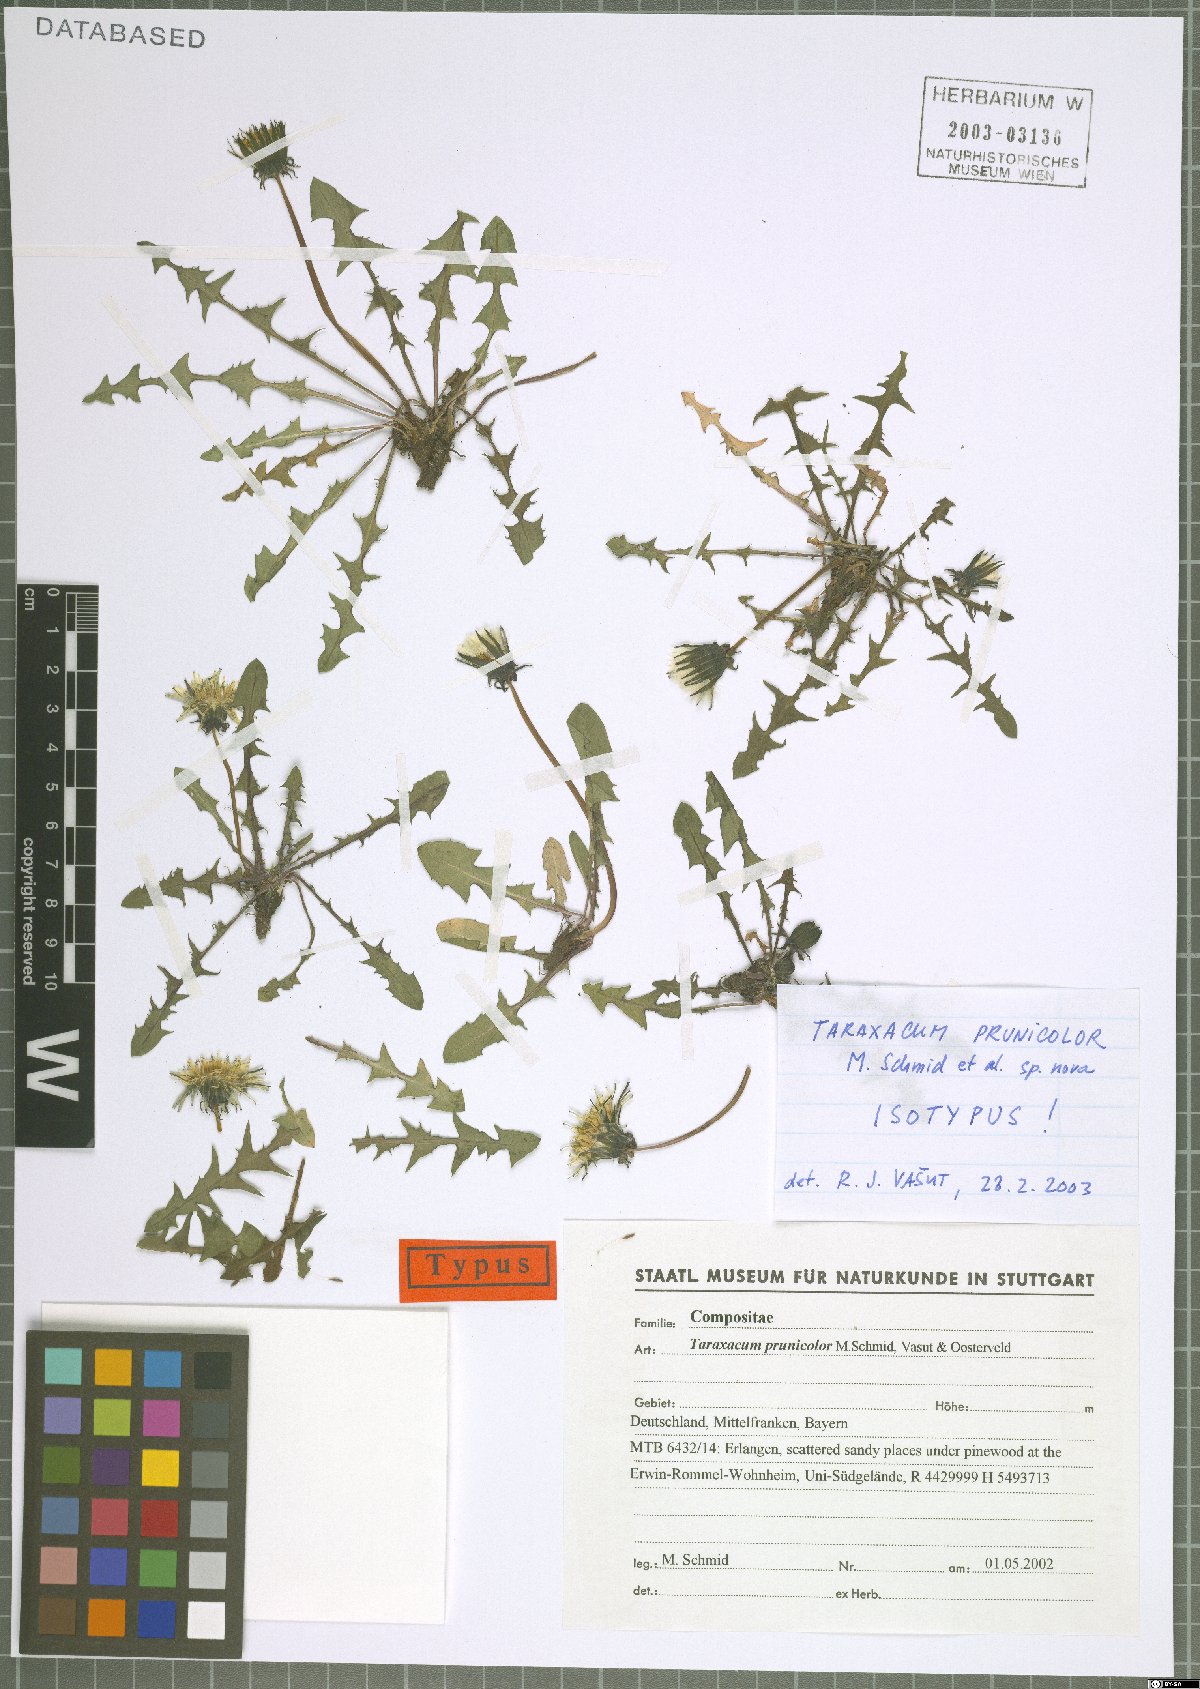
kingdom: Plantae
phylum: Tracheophyta
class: Magnoliopsida
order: Asterales
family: Asteraceae
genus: Taraxacum
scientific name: Taraxacum bellicum
